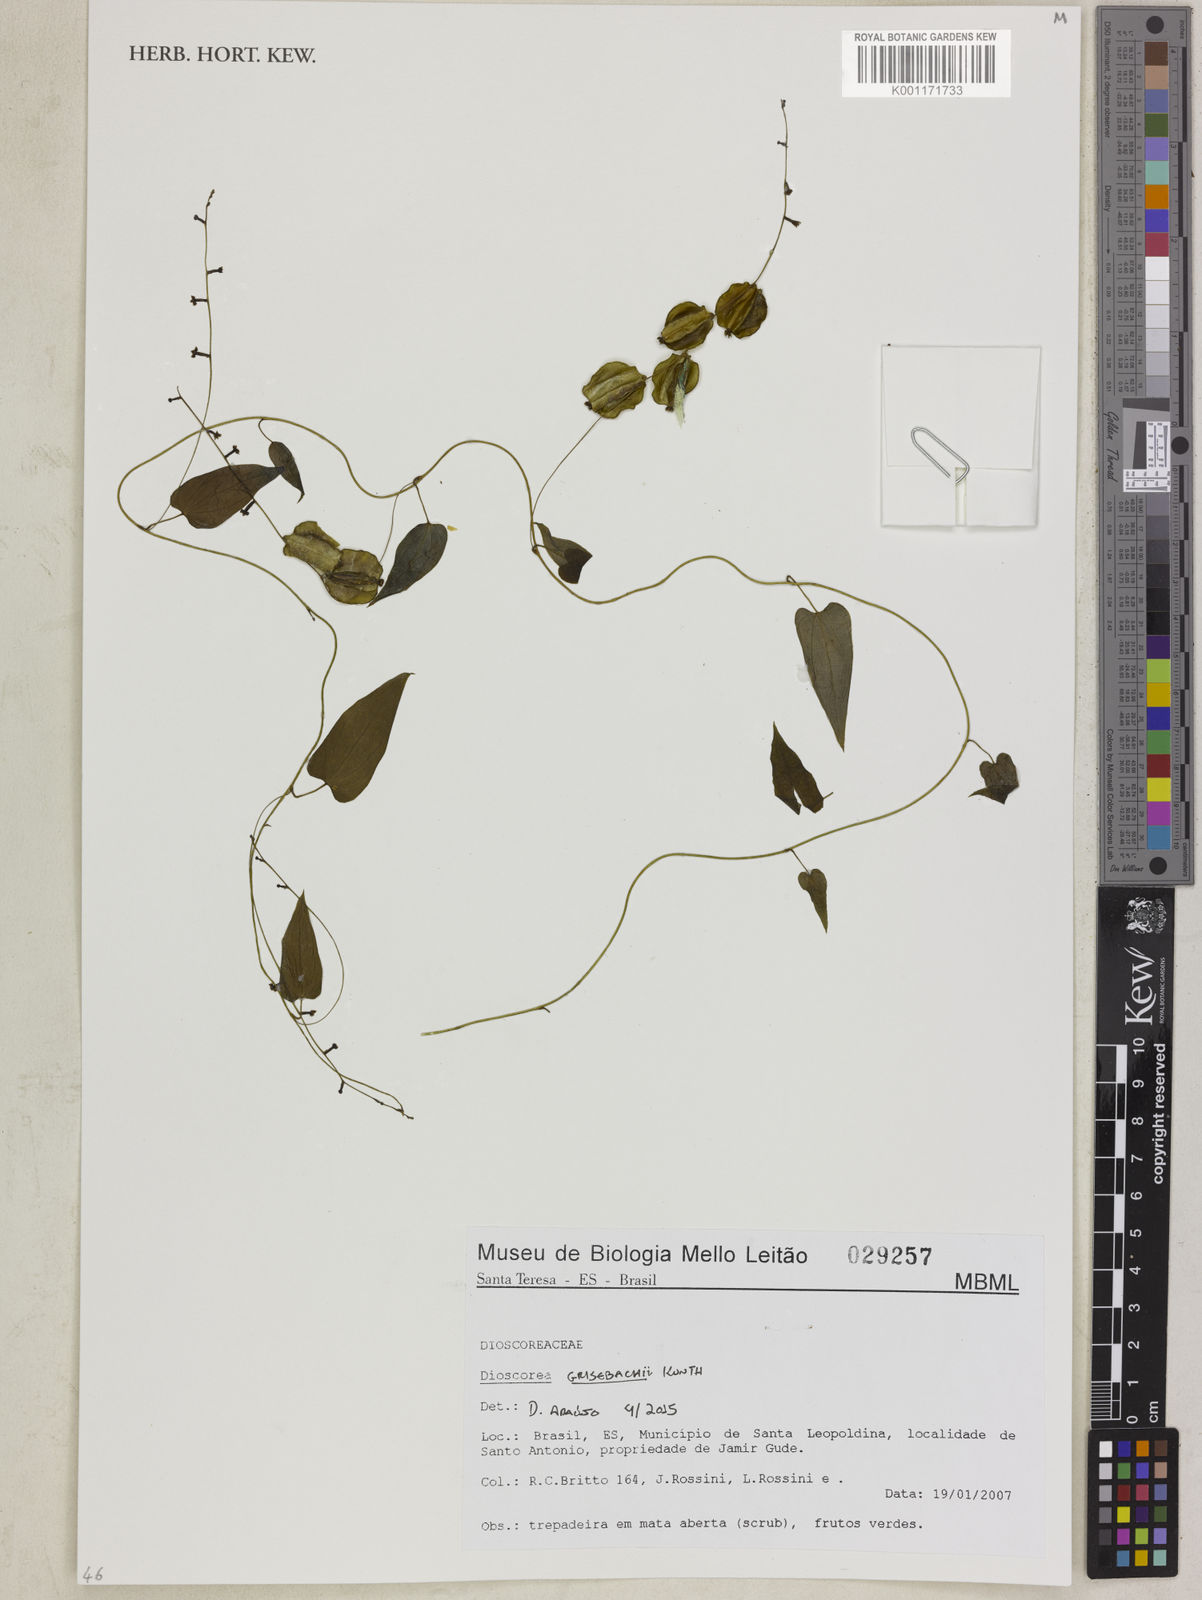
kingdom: Plantae
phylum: Tracheophyta
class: Liliopsida
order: Dioscoreales
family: Dioscoreaceae
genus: Dioscorea
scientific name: Dioscorea grisebachii
